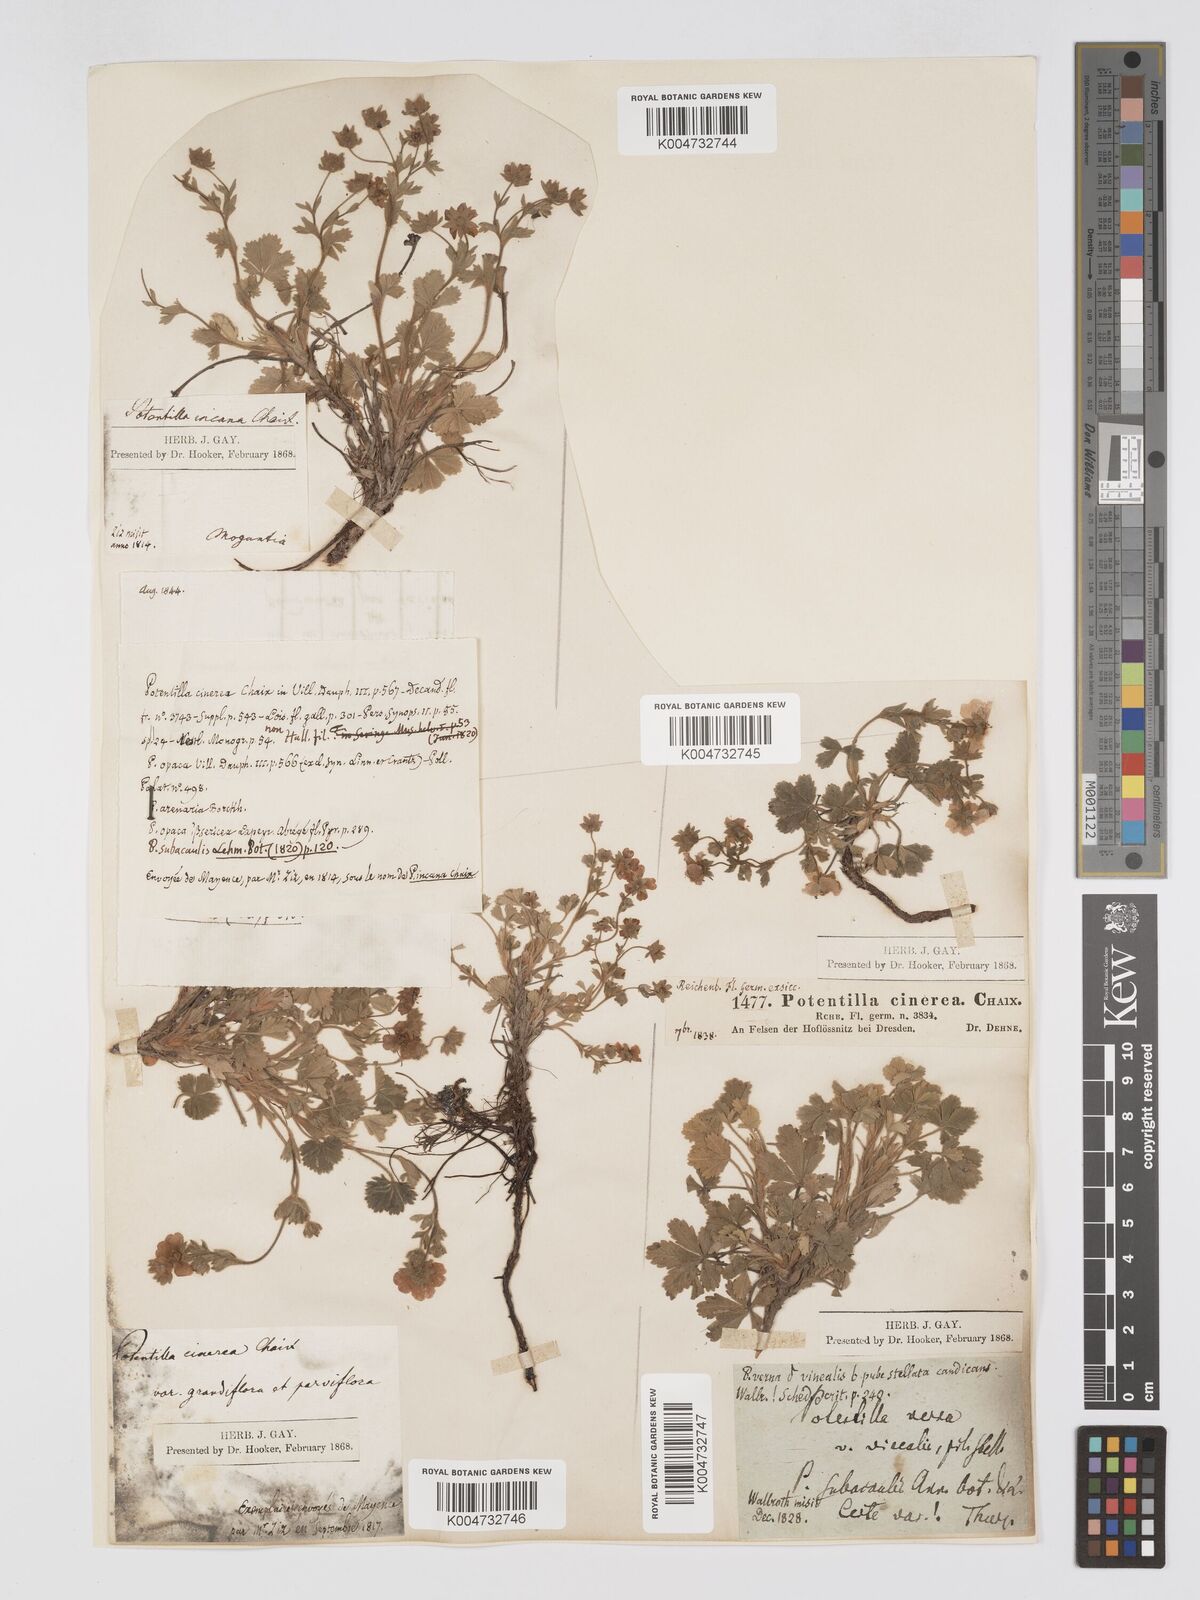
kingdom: Plantae
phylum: Tracheophyta
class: Magnoliopsida
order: Rosales
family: Rosaceae
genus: Potentilla
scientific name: Potentilla
